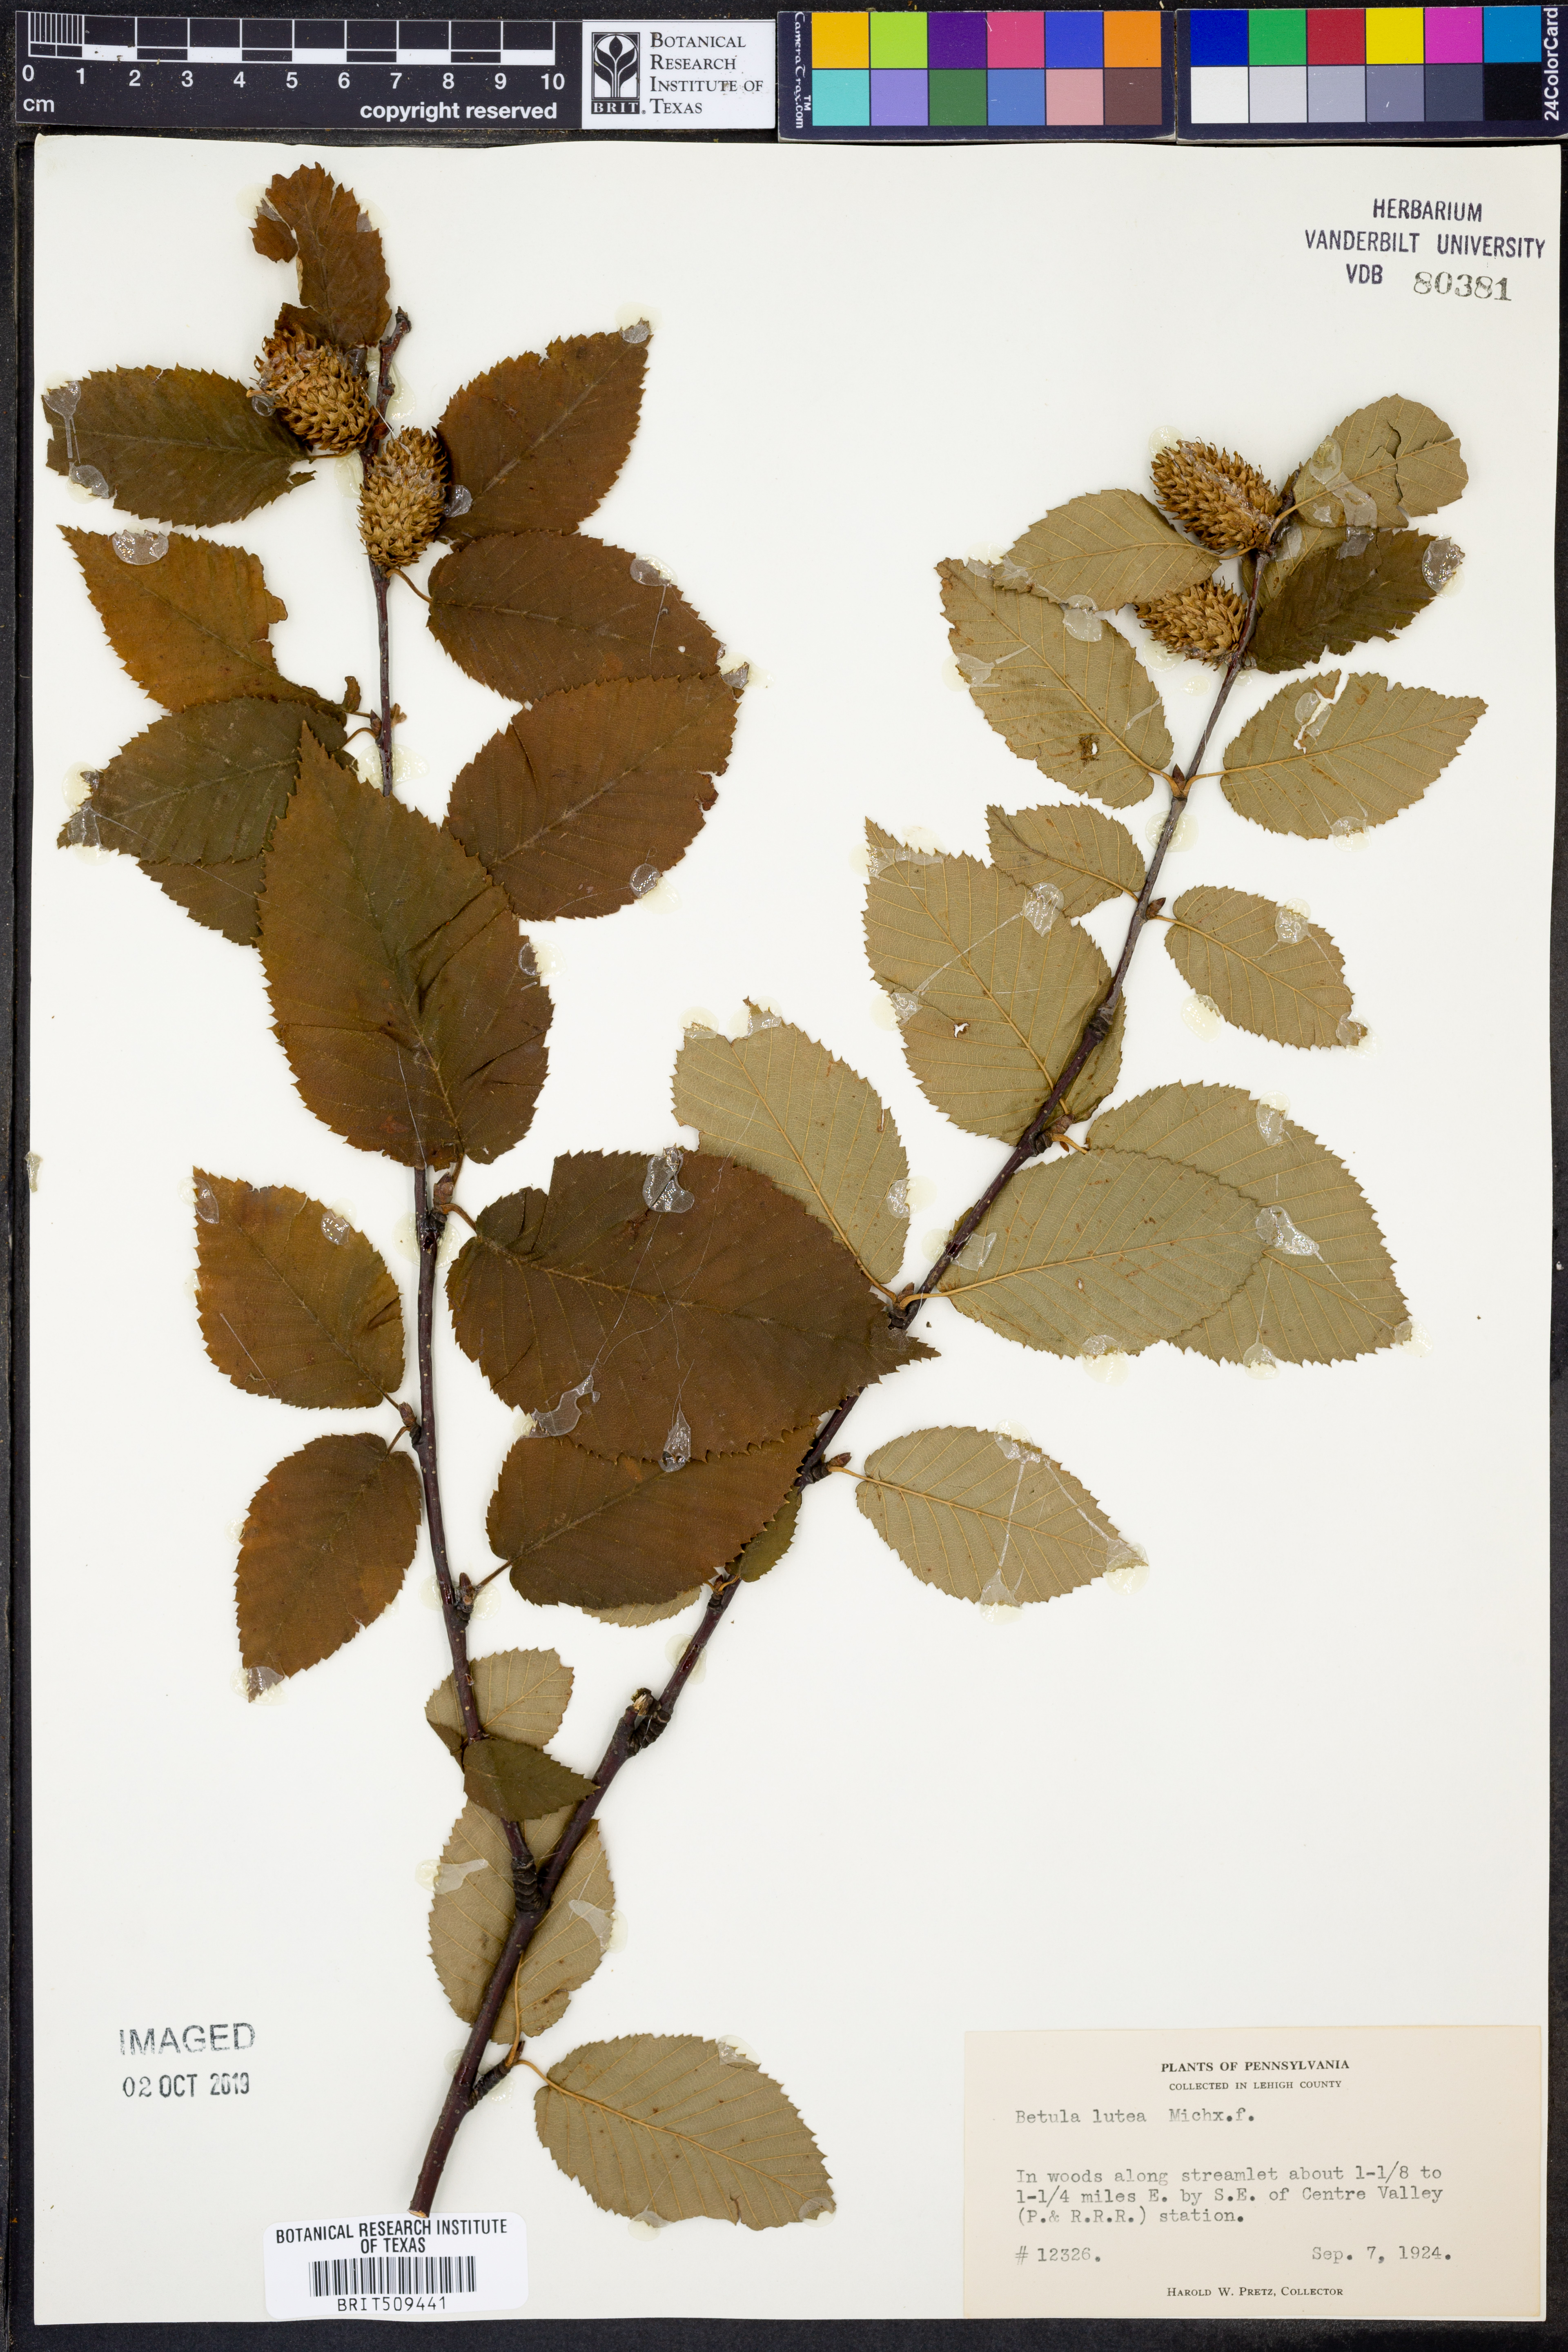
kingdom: Plantae
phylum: Tracheophyta
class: Magnoliopsida
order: Fagales
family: Betulaceae
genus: Betula
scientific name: Betula alleghaniensis
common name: Yellow birch
